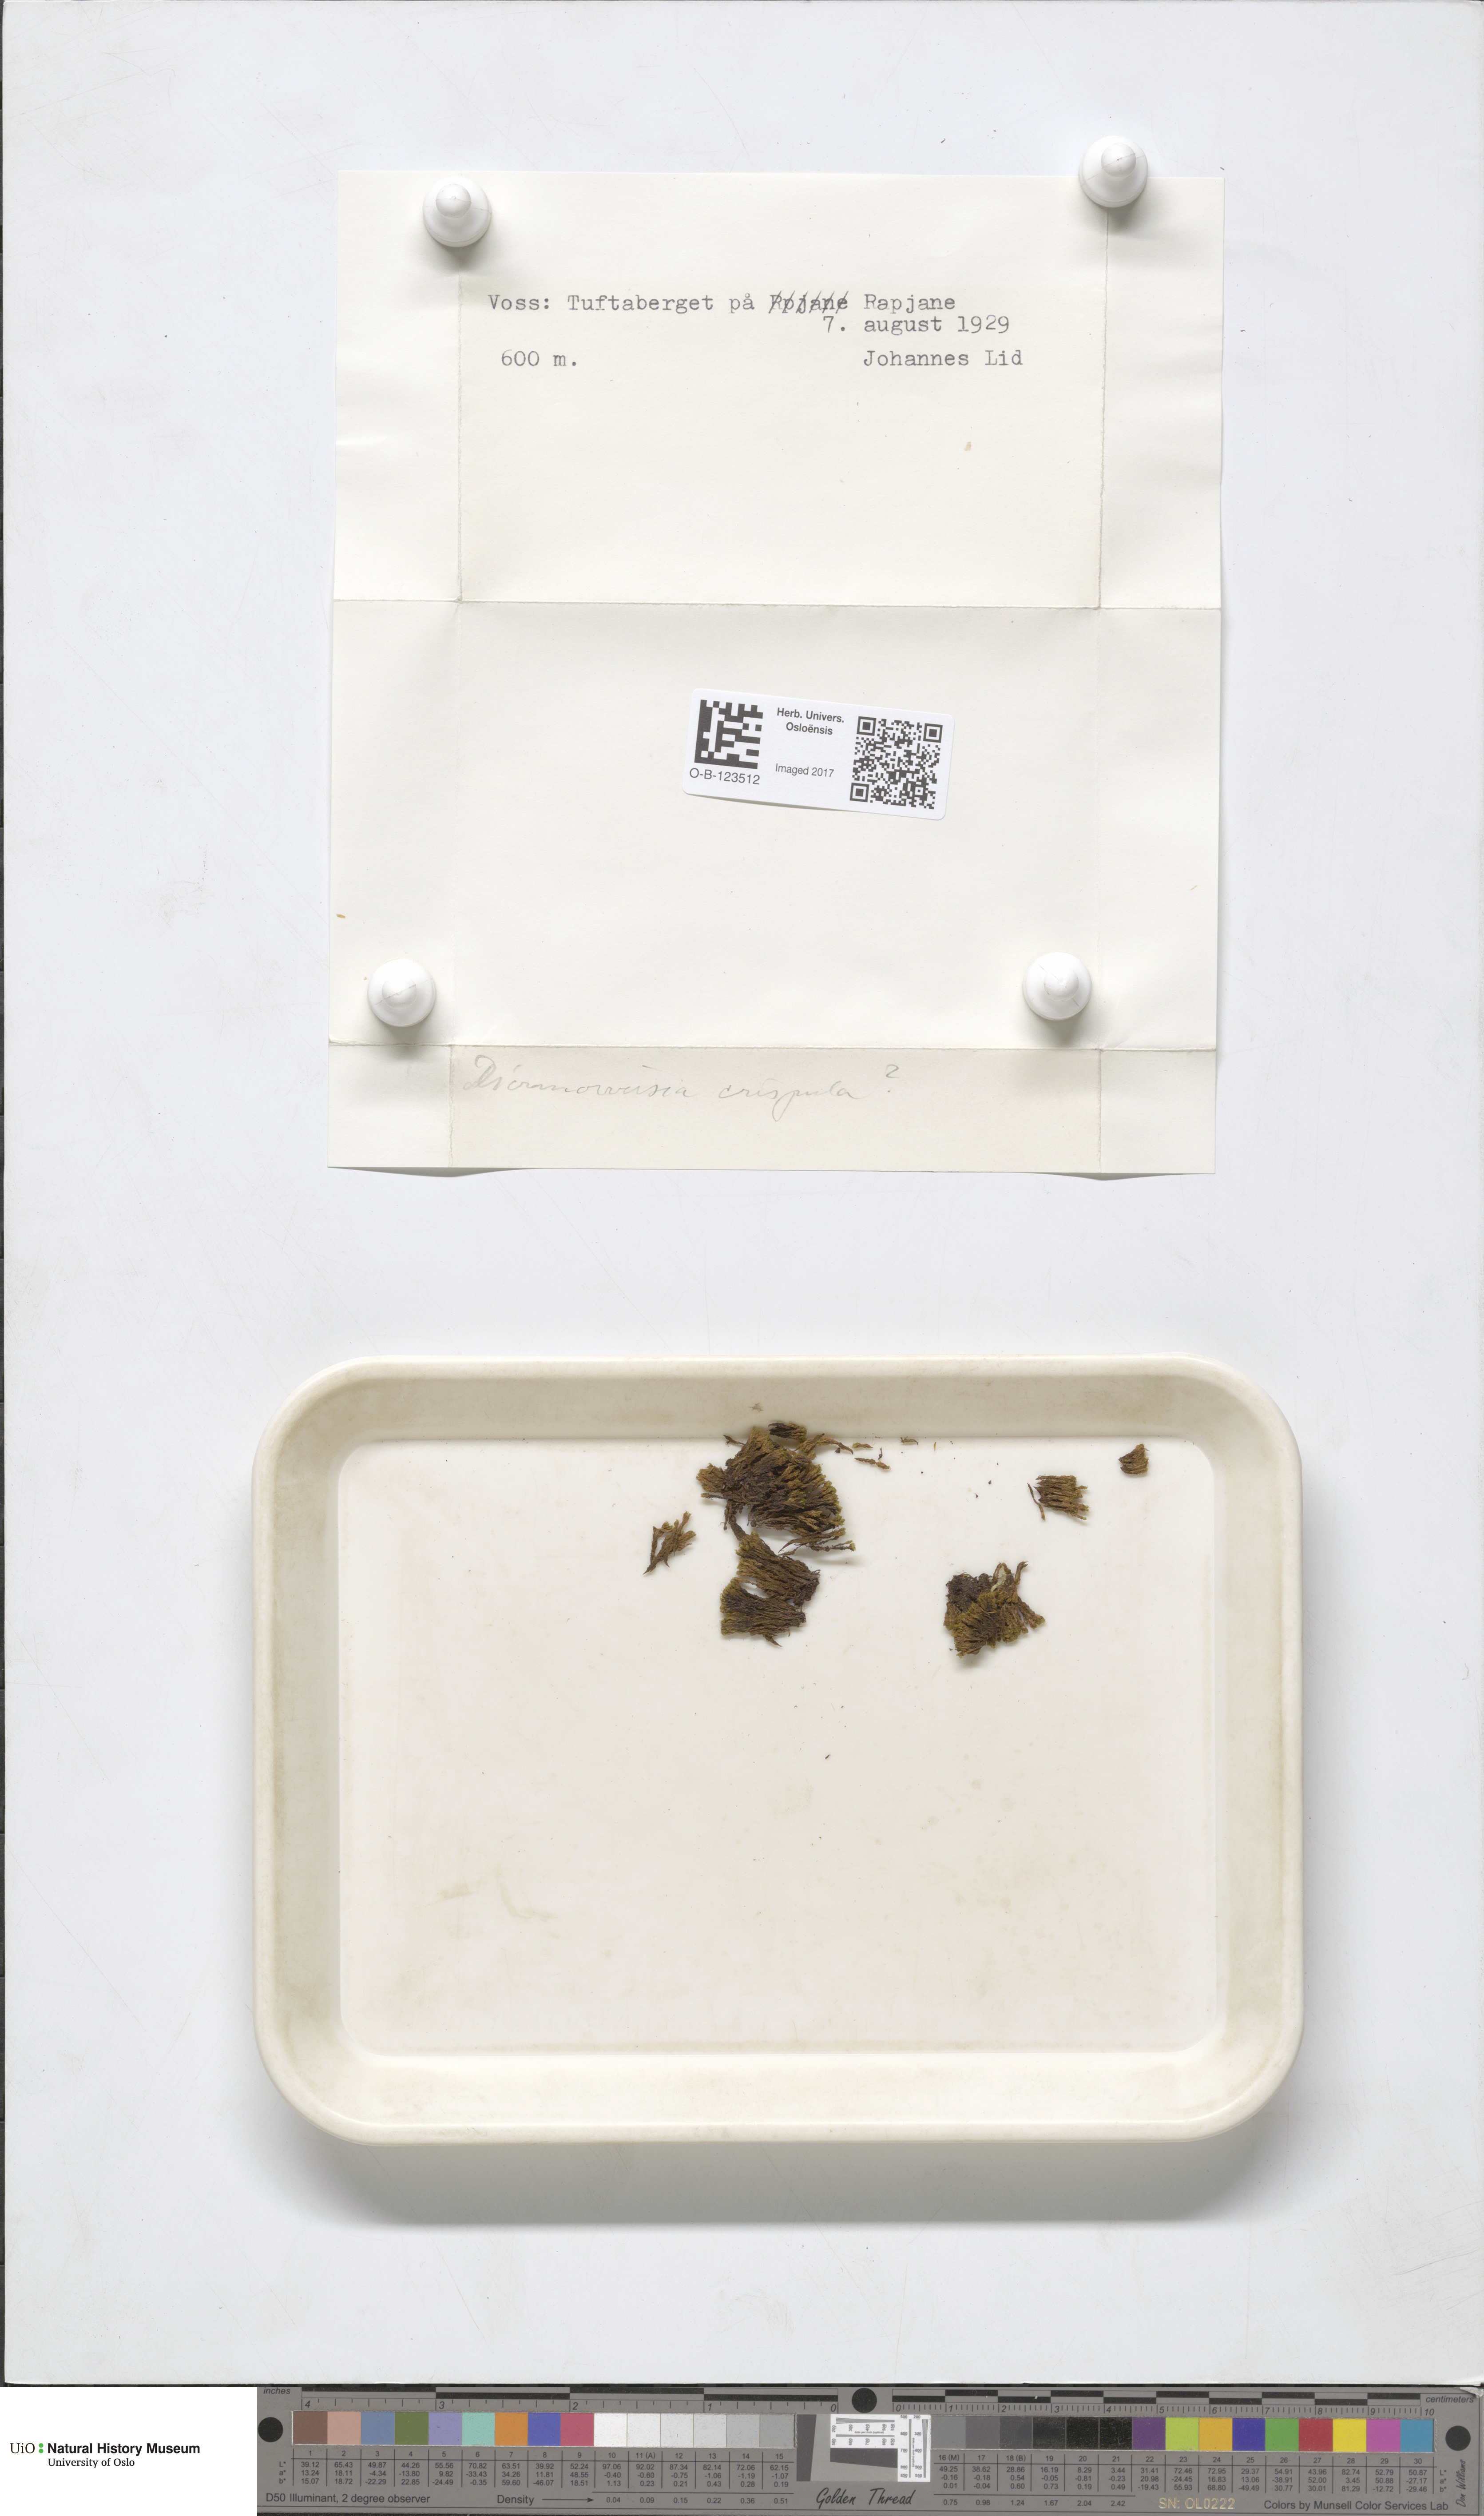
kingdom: Plantae
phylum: Bryophyta
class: Bryopsida
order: Scouleriales
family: Hymenolomataceae
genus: Hymenoloma
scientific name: Hymenoloma crispulum
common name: Mountain pincushion
